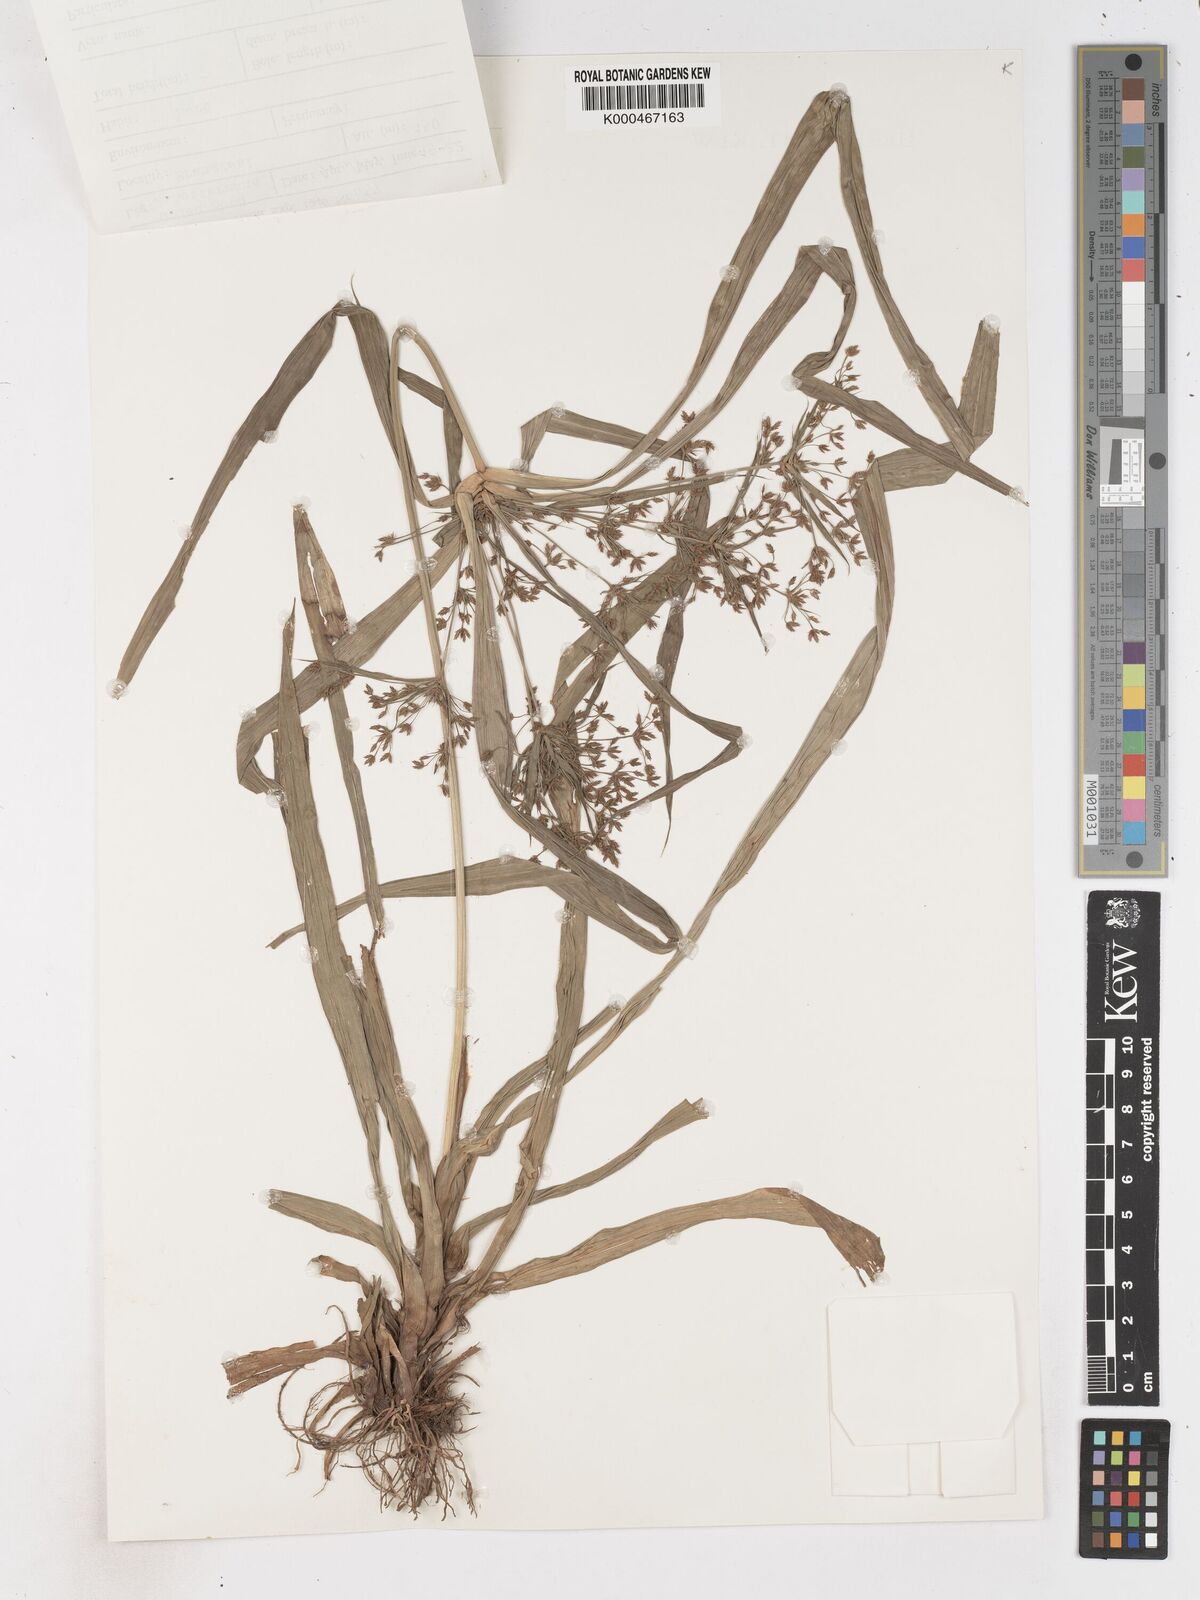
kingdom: Plantae
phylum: Tracheophyta
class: Liliopsida
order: Poales
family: Cyperaceae
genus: Cyperus
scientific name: Cyperus diffusus
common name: Dwarf umbrella grass
